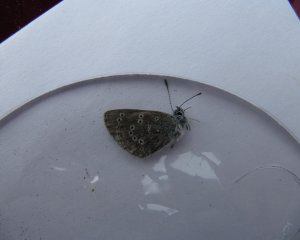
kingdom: Animalia
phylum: Arthropoda
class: Insecta
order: Lepidoptera
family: Lycaenidae
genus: Glaucopsyche
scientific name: Glaucopsyche lygdamus
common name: Silvery Blue
